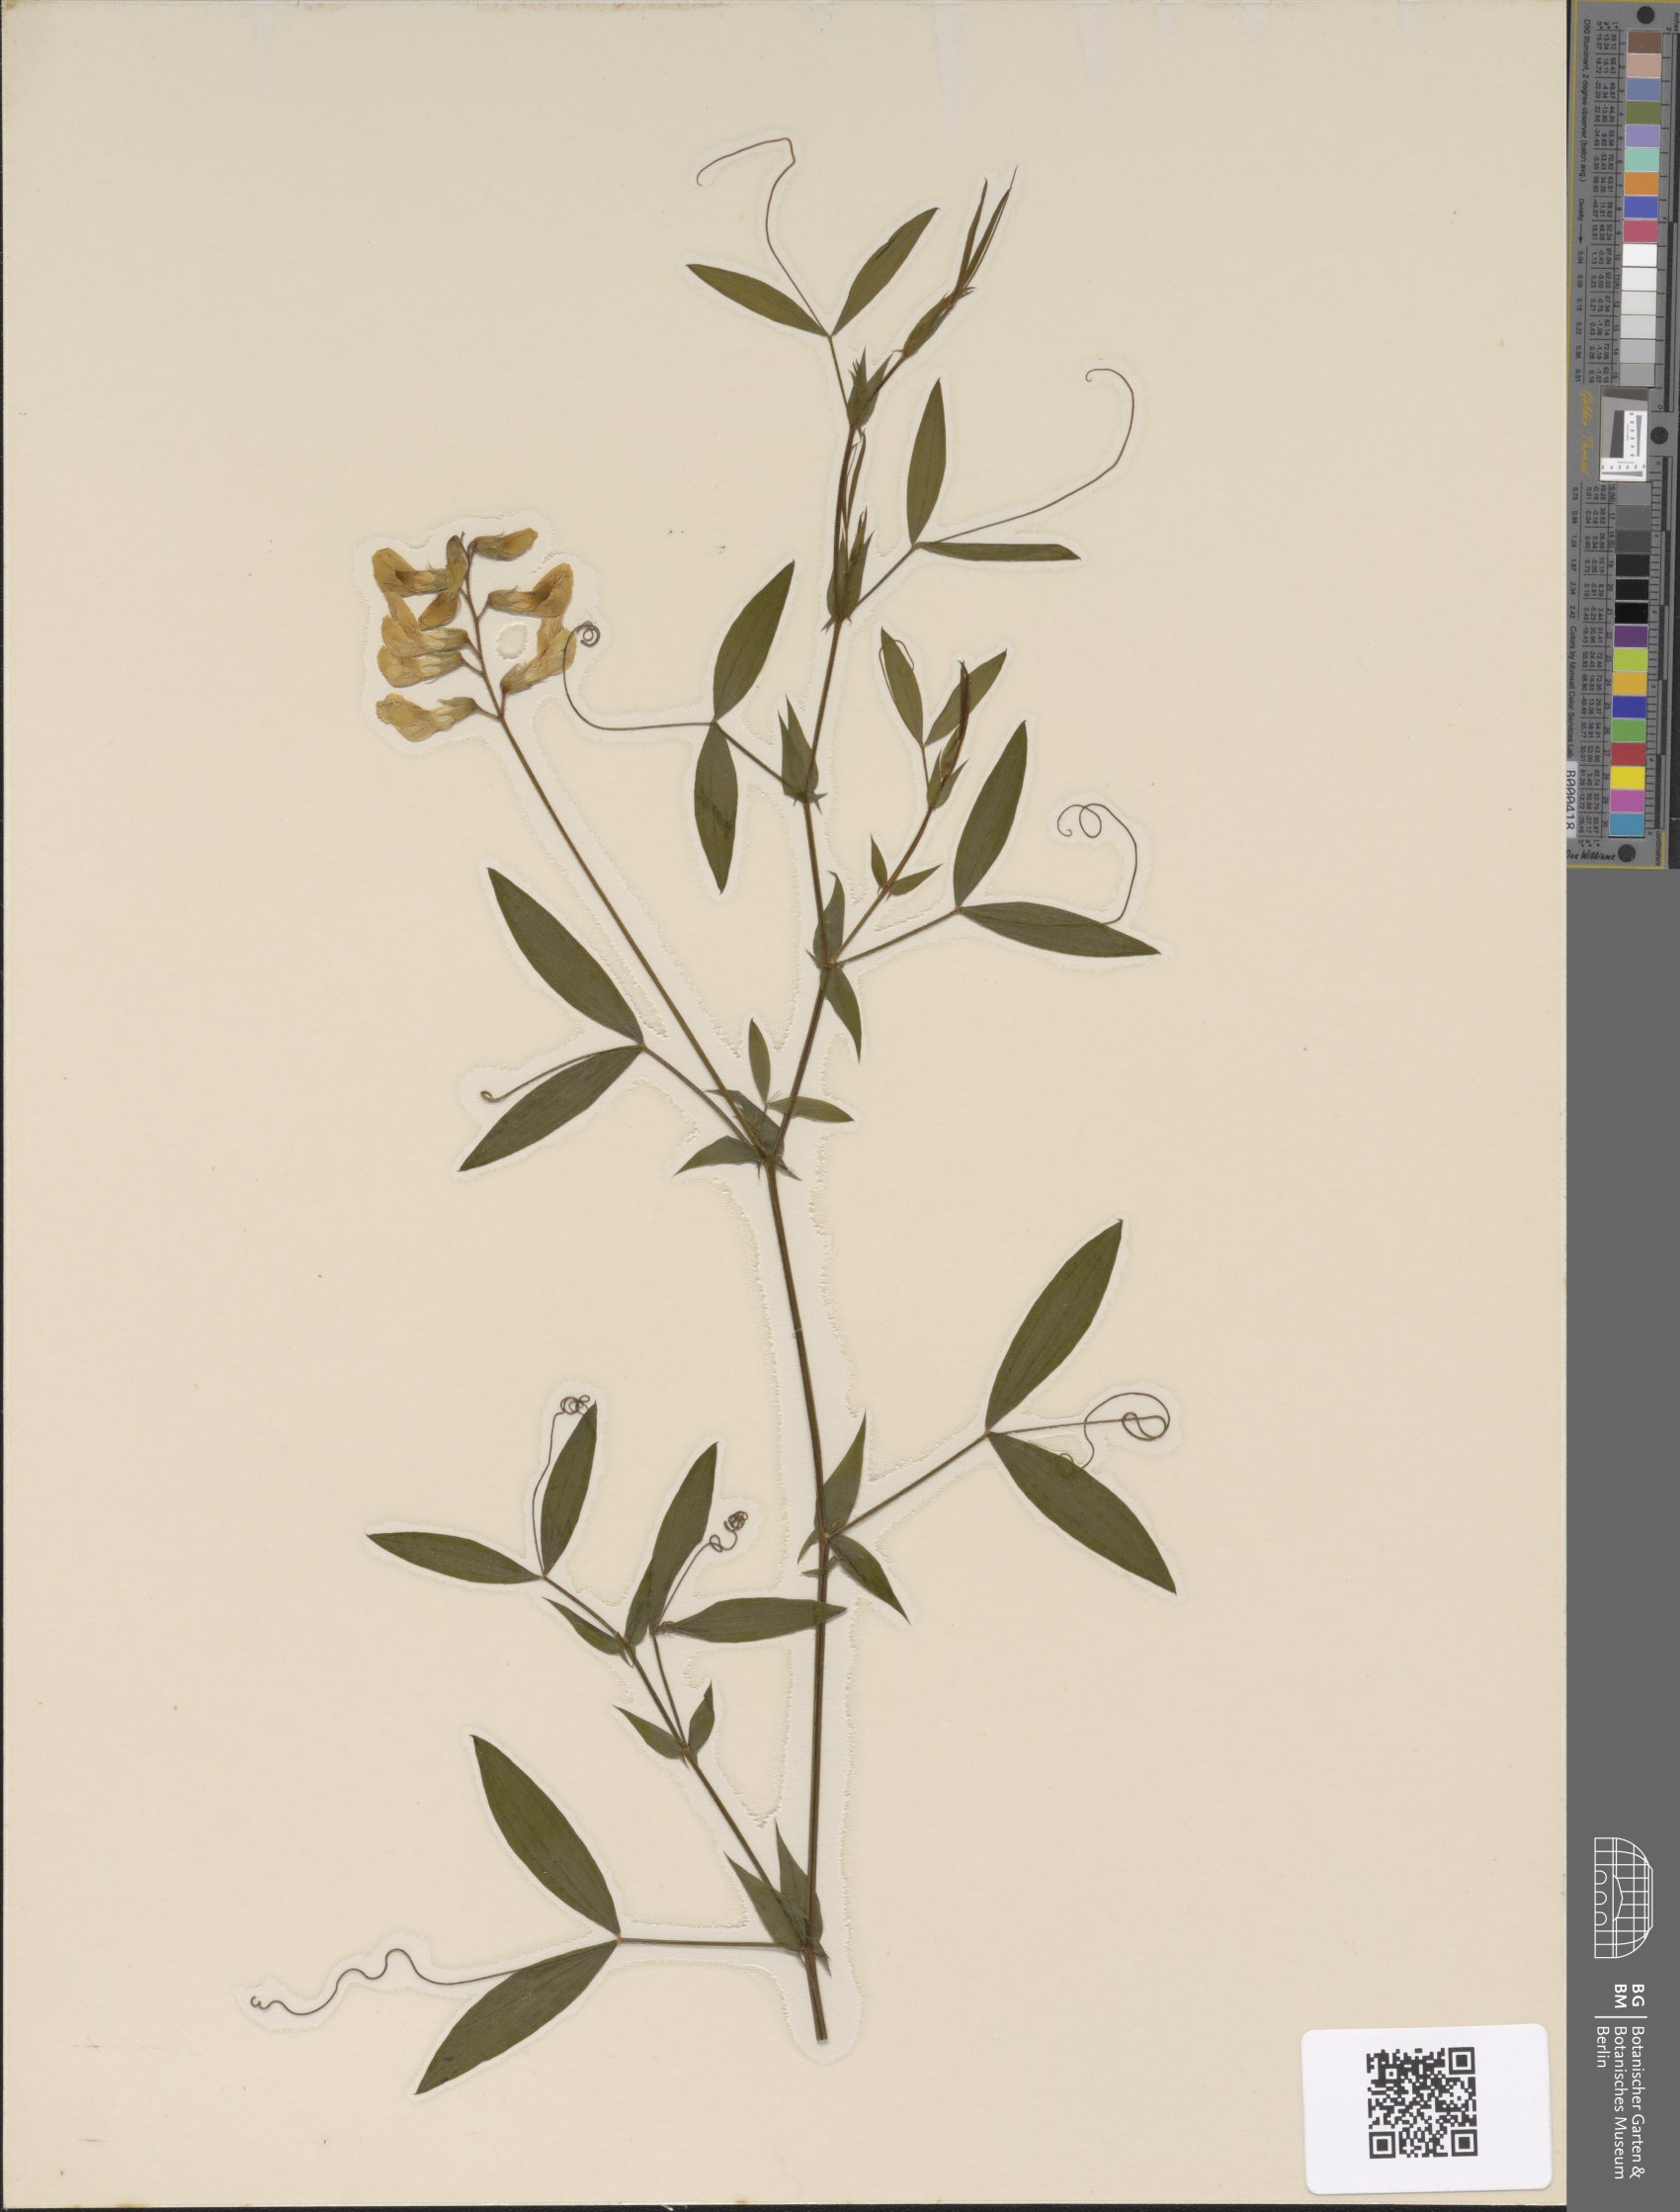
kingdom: Plantae
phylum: Tracheophyta
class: Magnoliopsida
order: Fabales
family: Fabaceae
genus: Lathyrus
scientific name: Lathyrus pratensis
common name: Meadow vetchling
